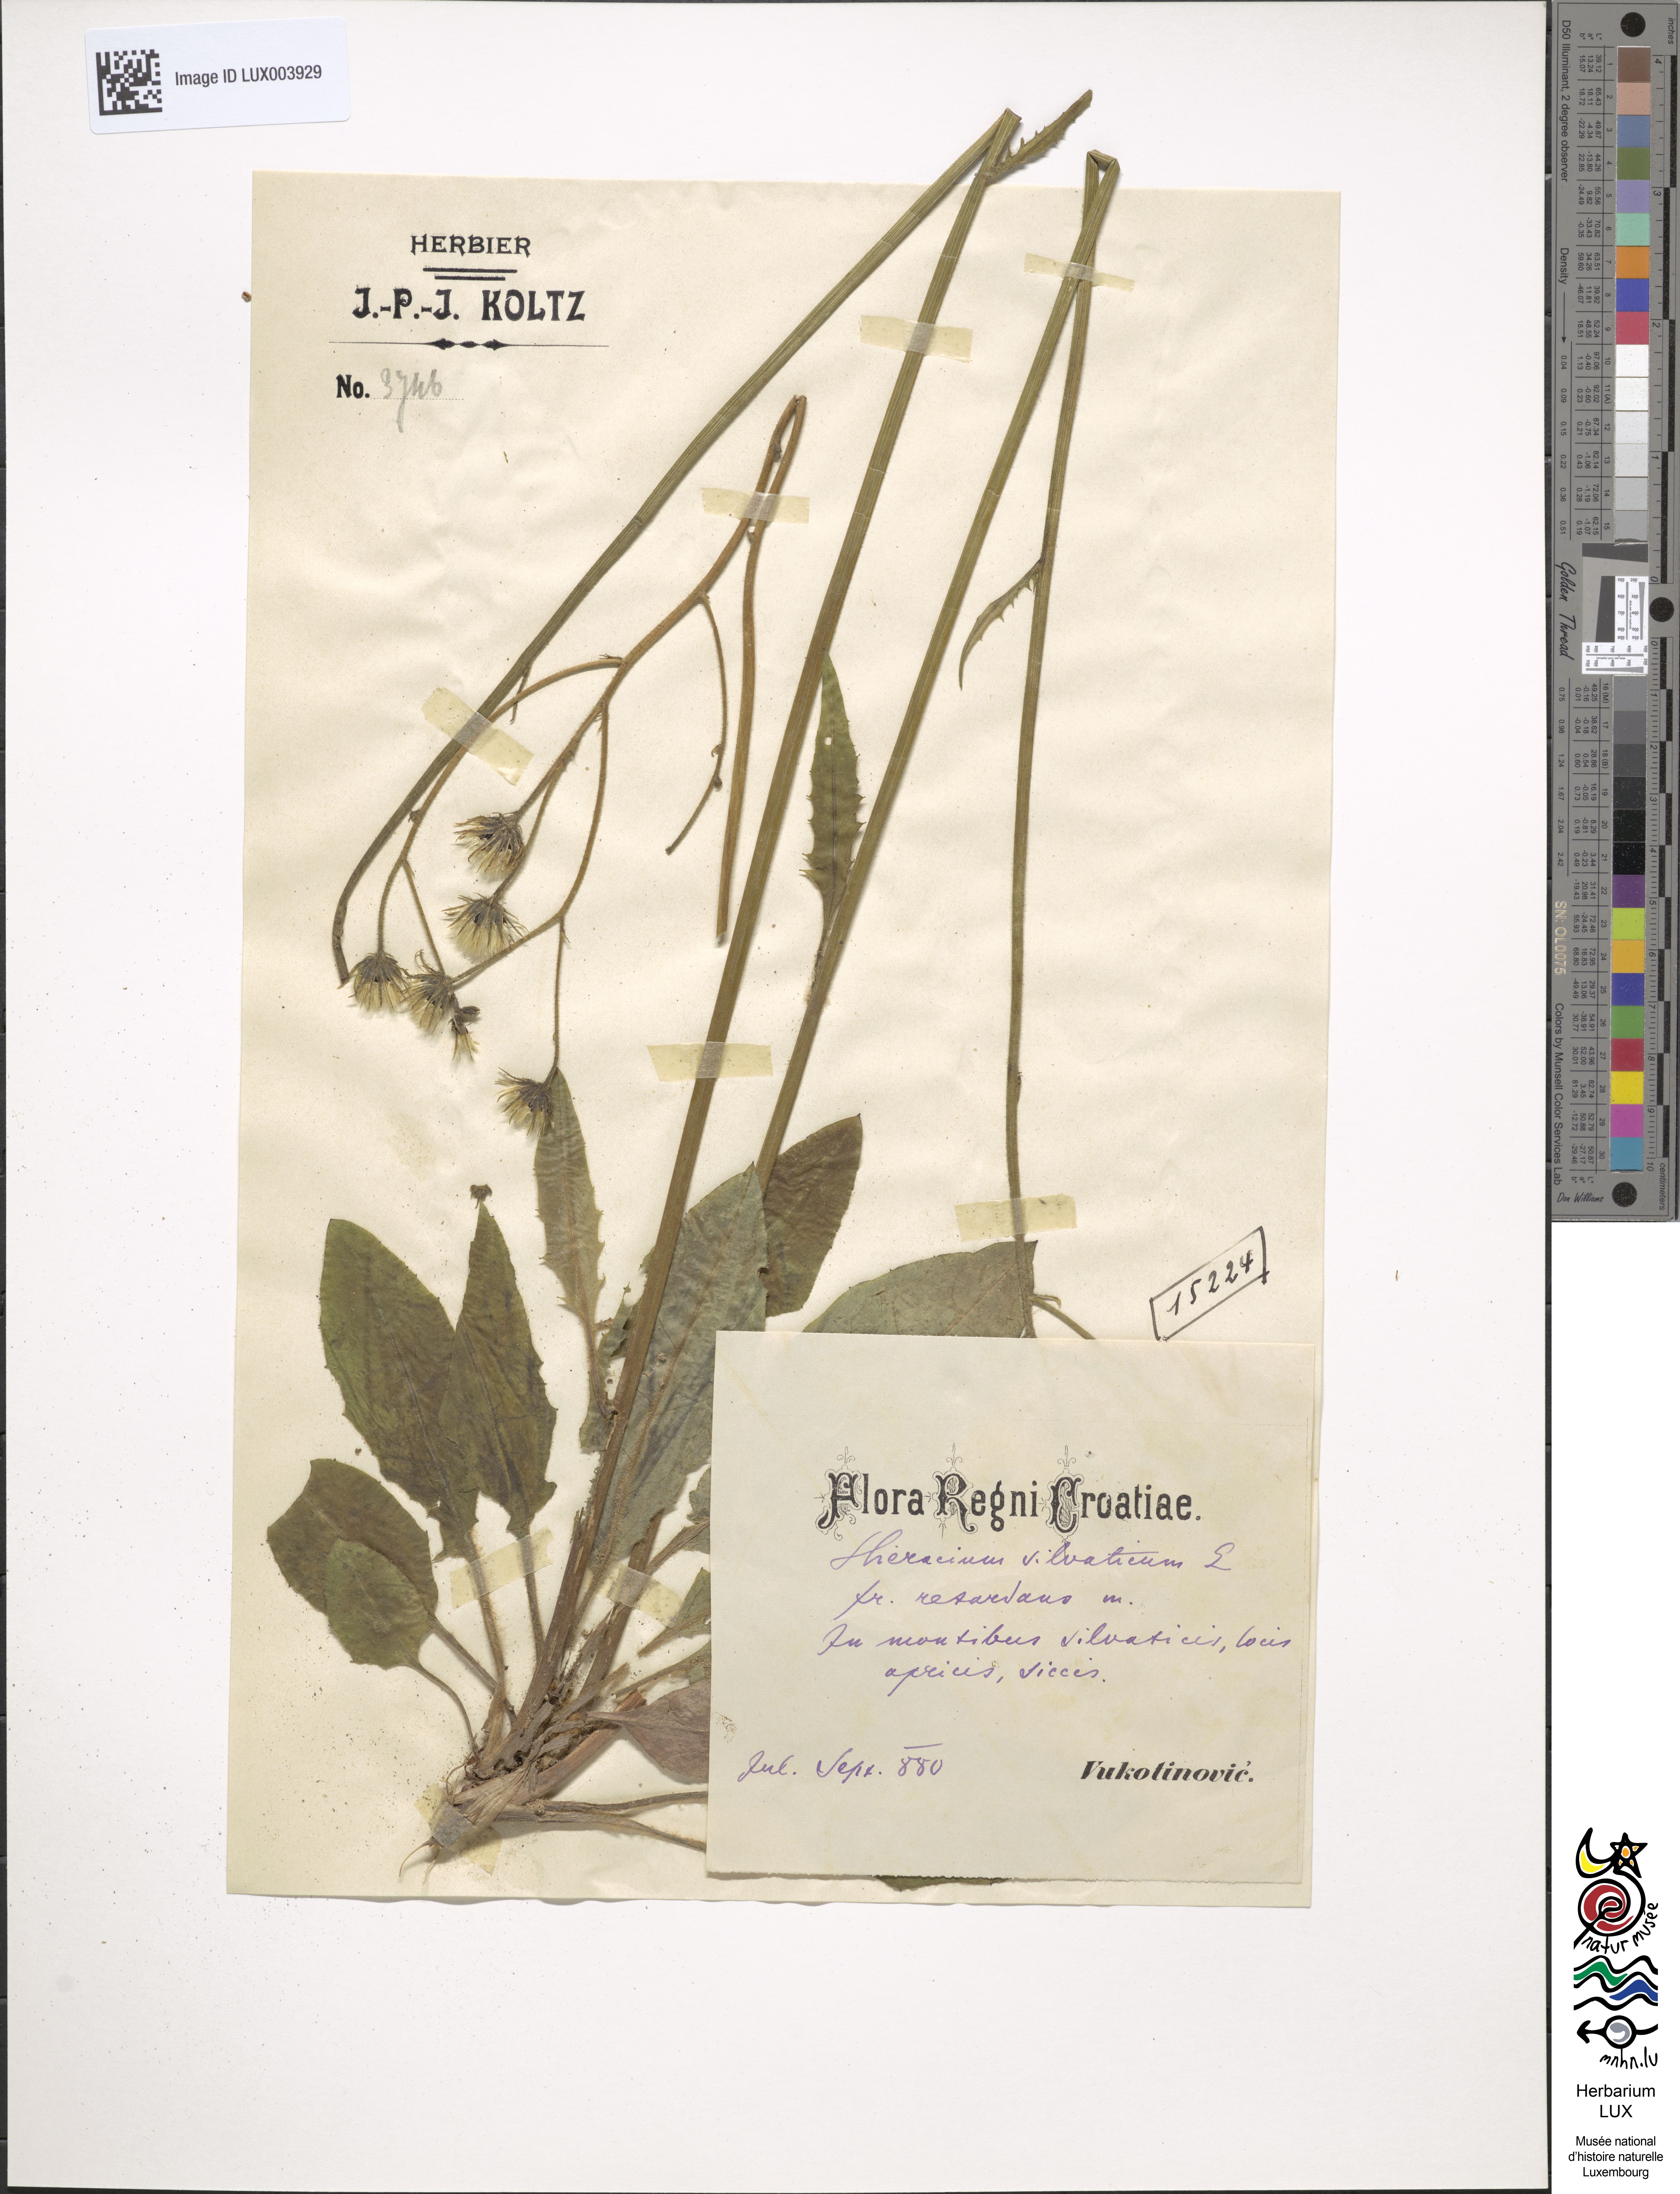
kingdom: Plantae
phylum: Tracheophyta
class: Magnoliopsida
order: Asterales
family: Asteraceae
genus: Hieracium
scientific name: Hieracium murorum
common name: Wall hawkweed
